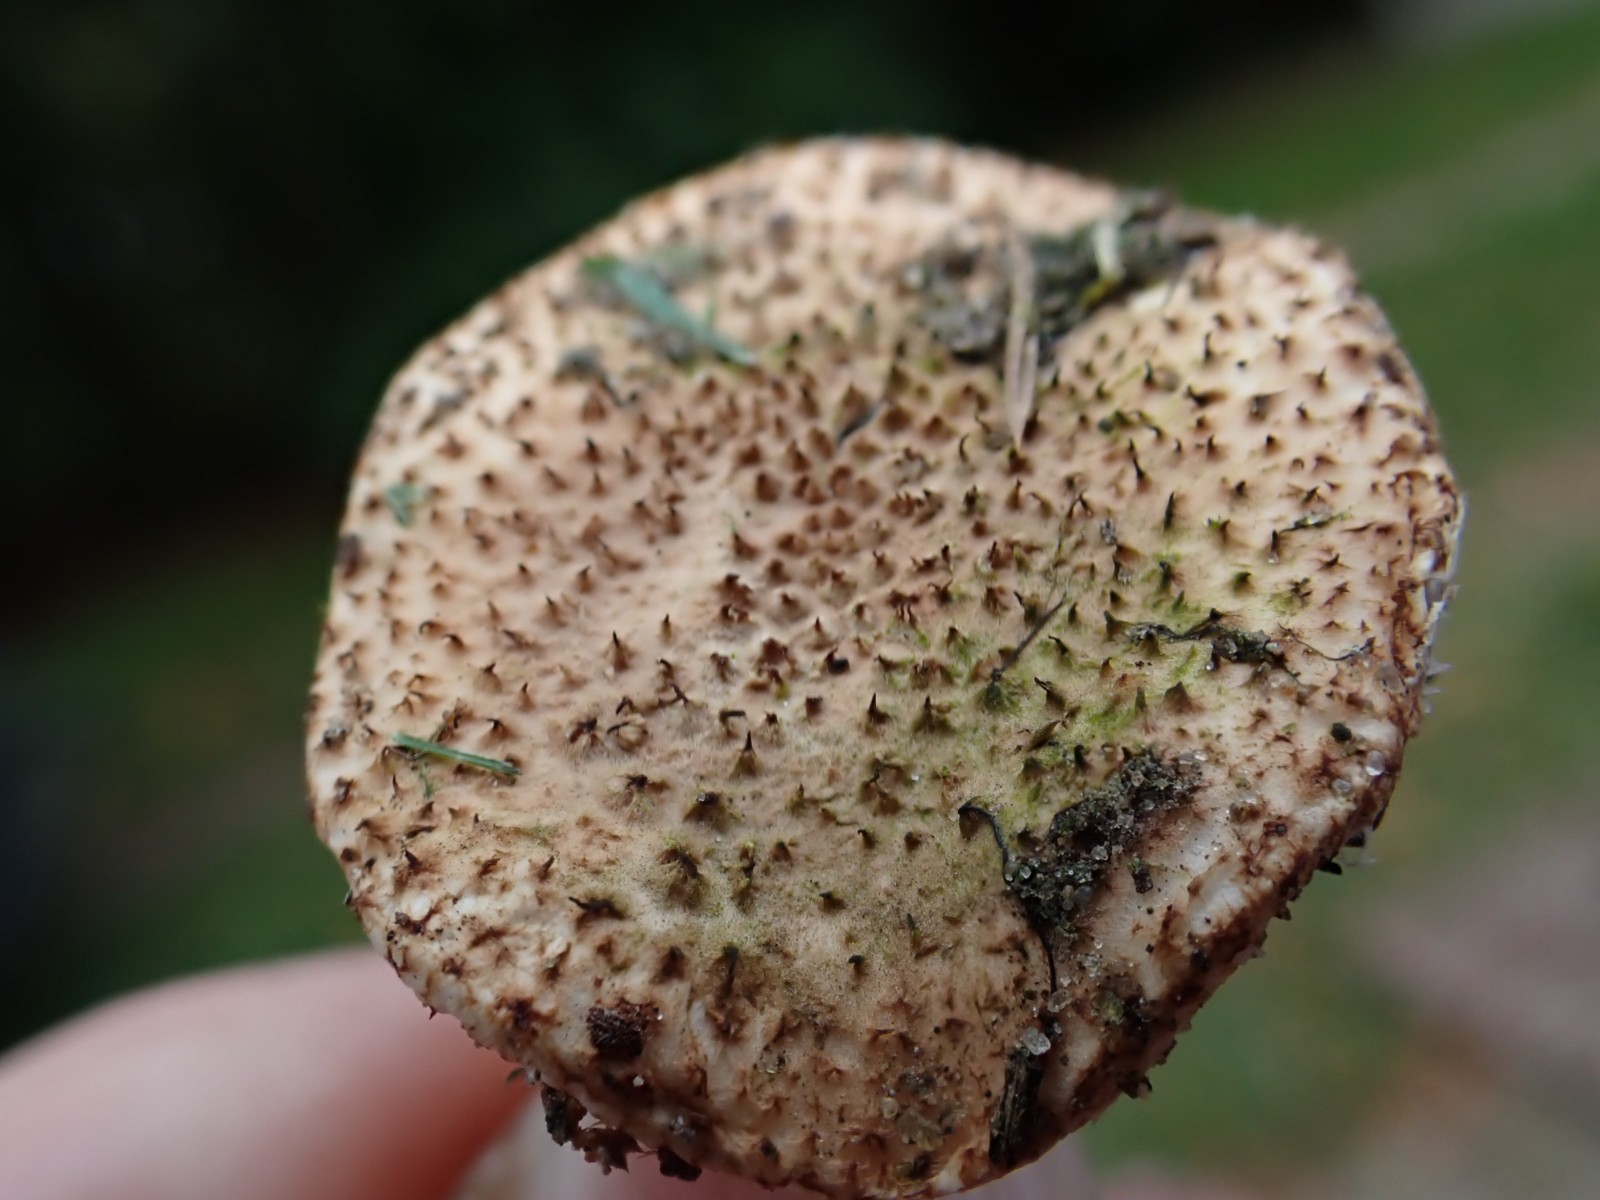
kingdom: Fungi
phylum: Basidiomycota
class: Agaricomycetes
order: Agaricales
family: Agaricaceae
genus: Echinoderma
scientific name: Echinoderma echinaceum
